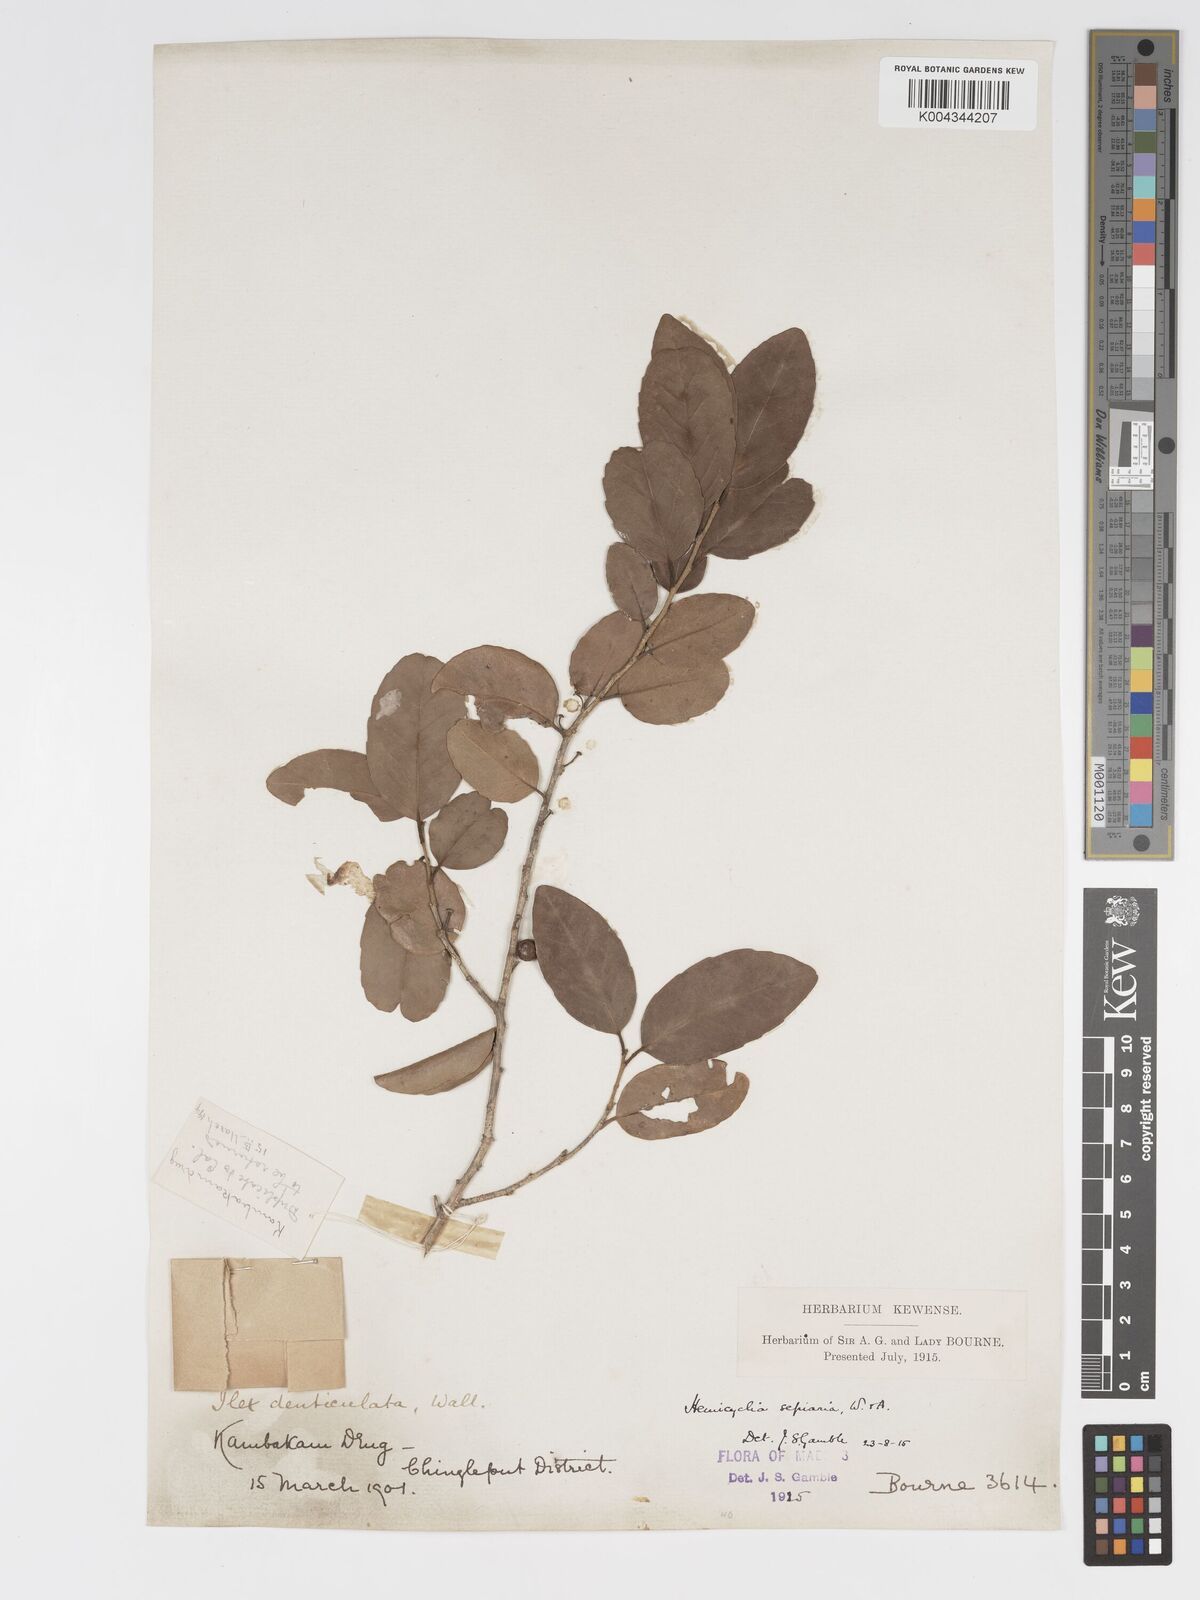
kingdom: Plantae
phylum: Tracheophyta
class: Magnoliopsida
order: Malpighiales
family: Putranjivaceae
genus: Drypetes
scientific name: Drypetes sepiaria
